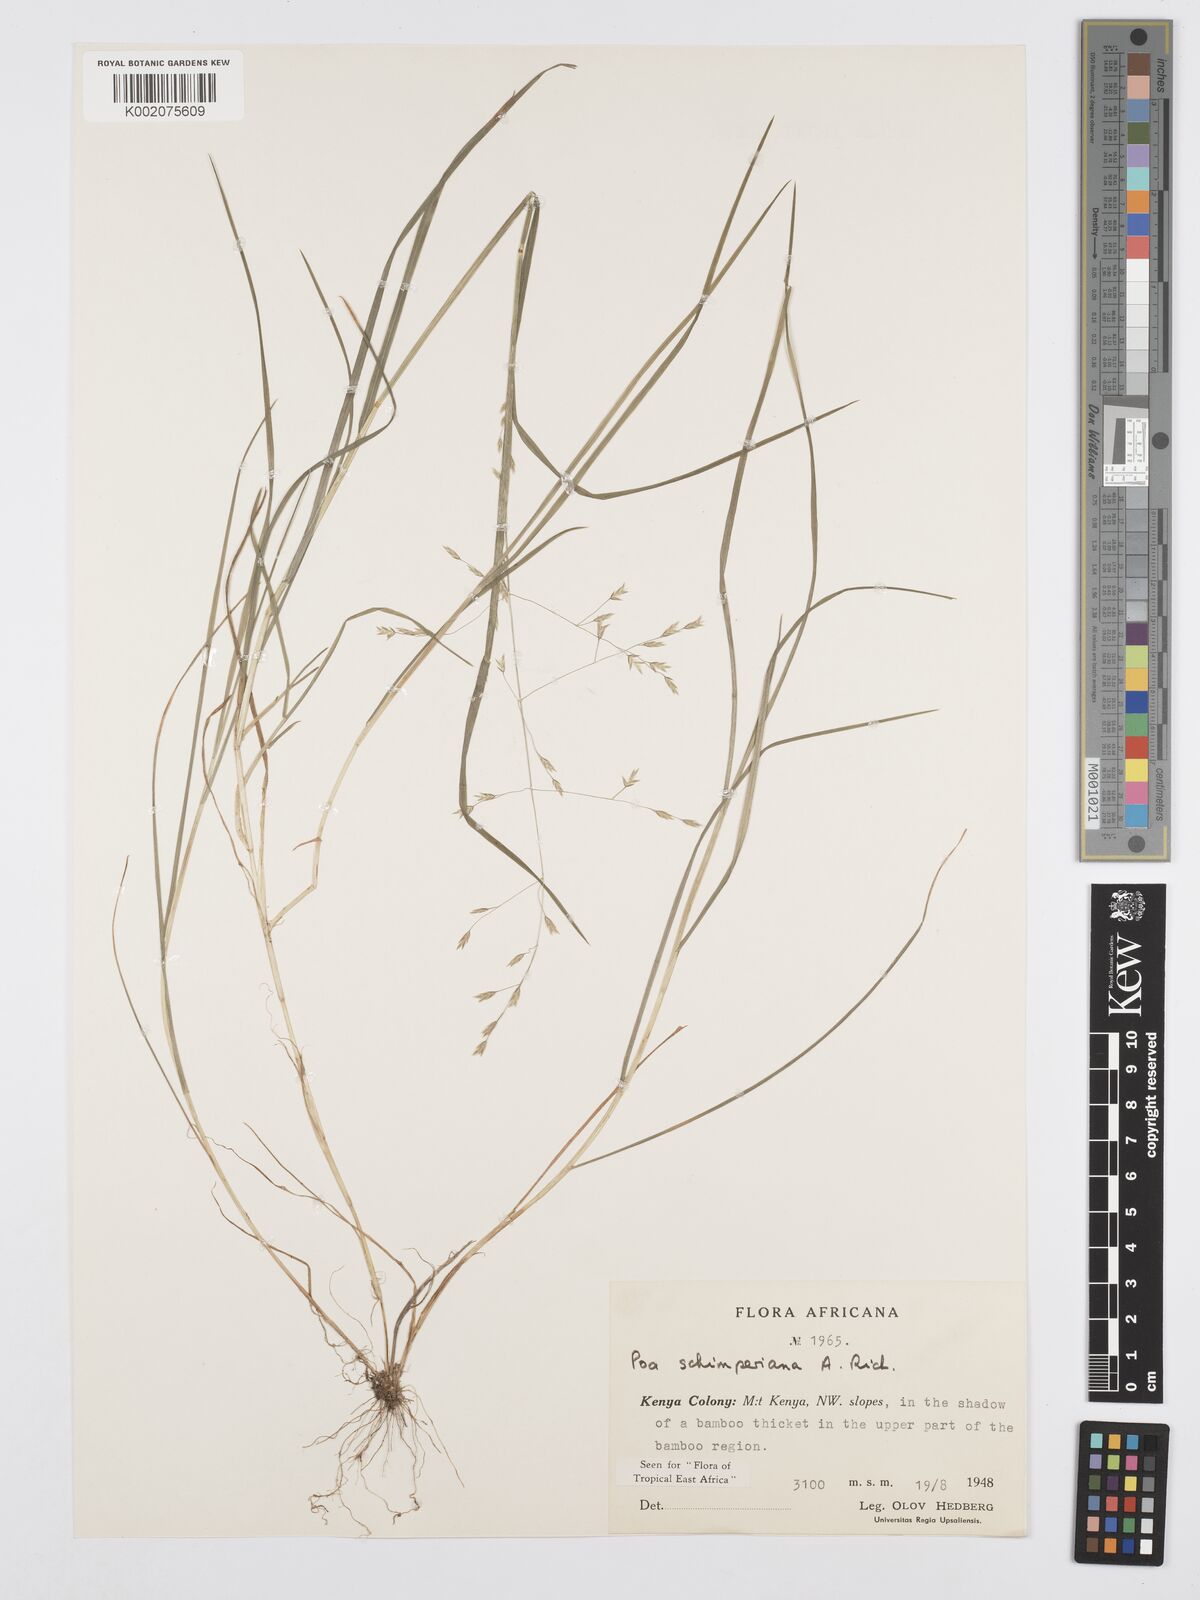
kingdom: Plantae
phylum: Tracheophyta
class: Liliopsida
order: Poales
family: Poaceae
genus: Poa
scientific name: Poa schimperiana
